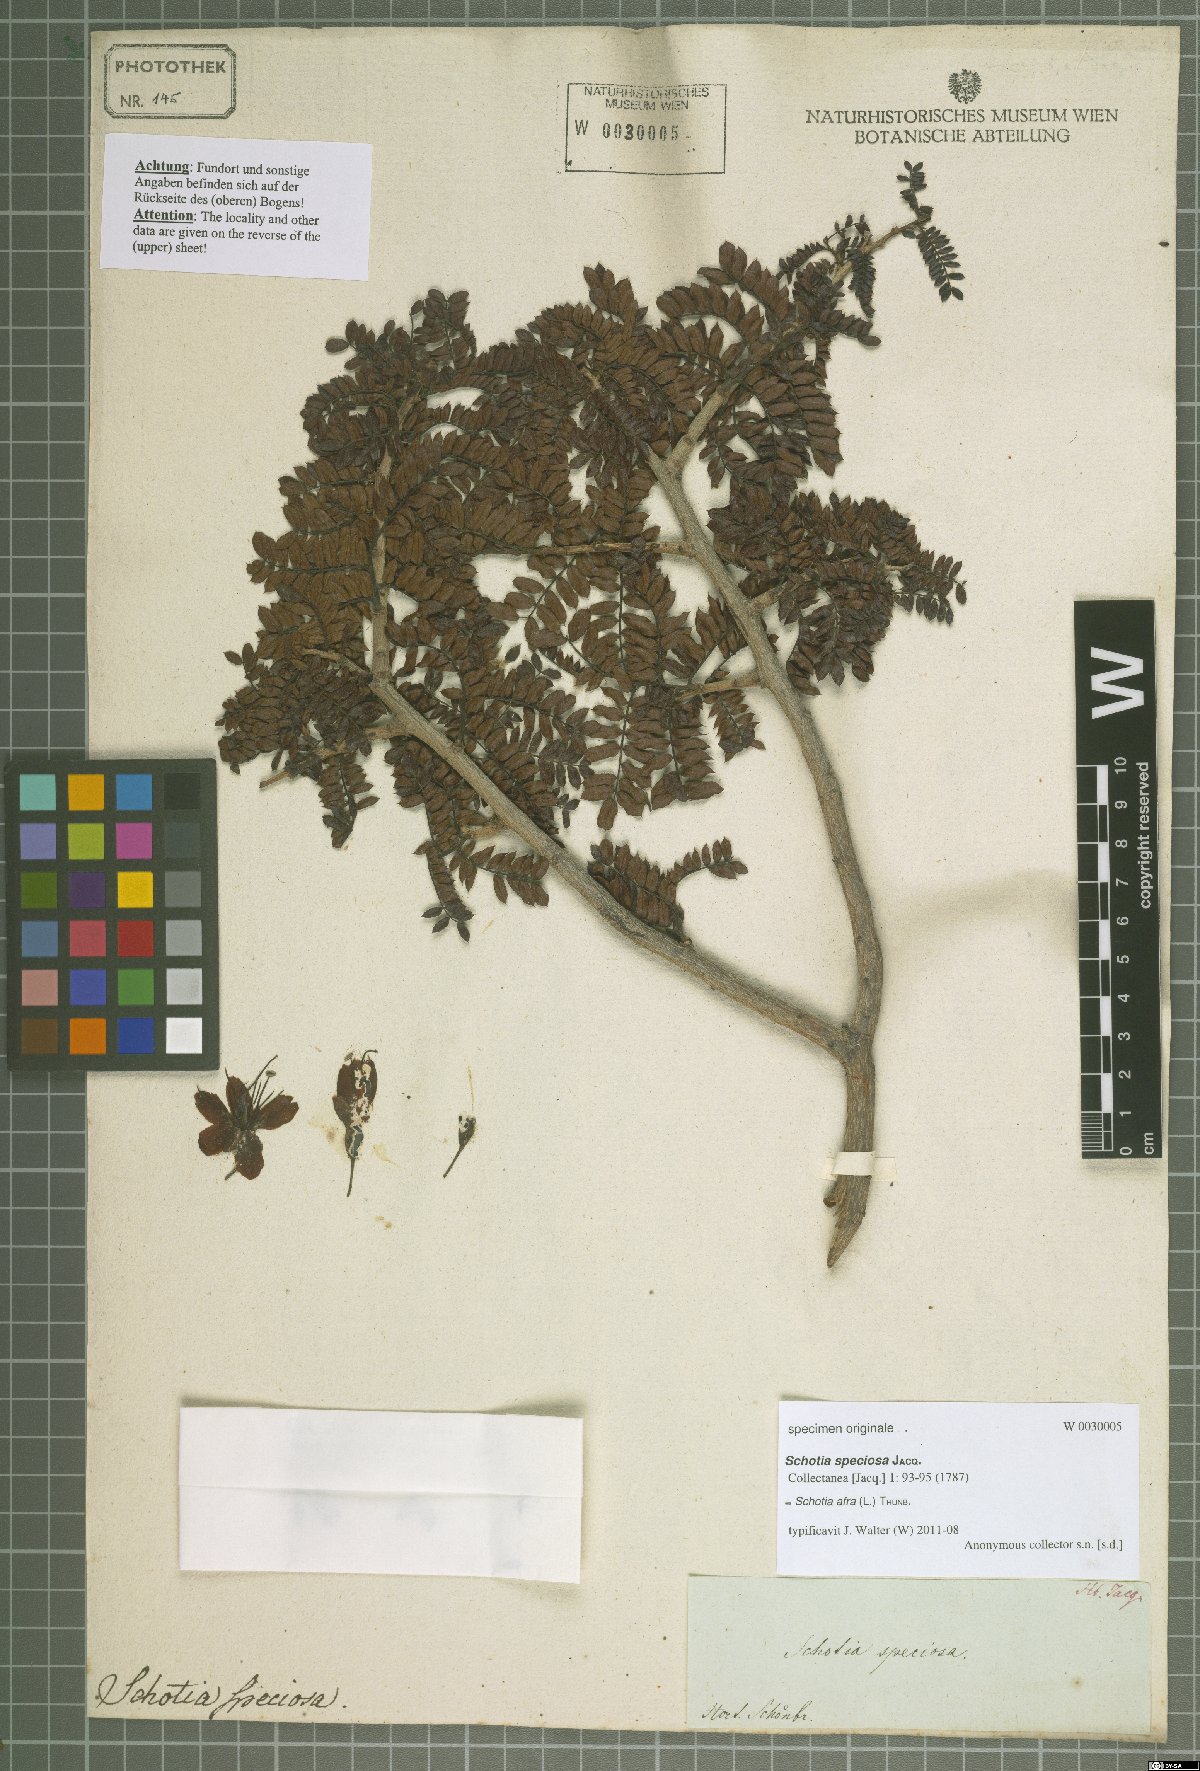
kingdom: Plantae
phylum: Tracheophyta
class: Magnoliopsida
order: Fabales
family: Fabaceae
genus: Schotia
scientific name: Schotia afra
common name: Hottentot's bean
